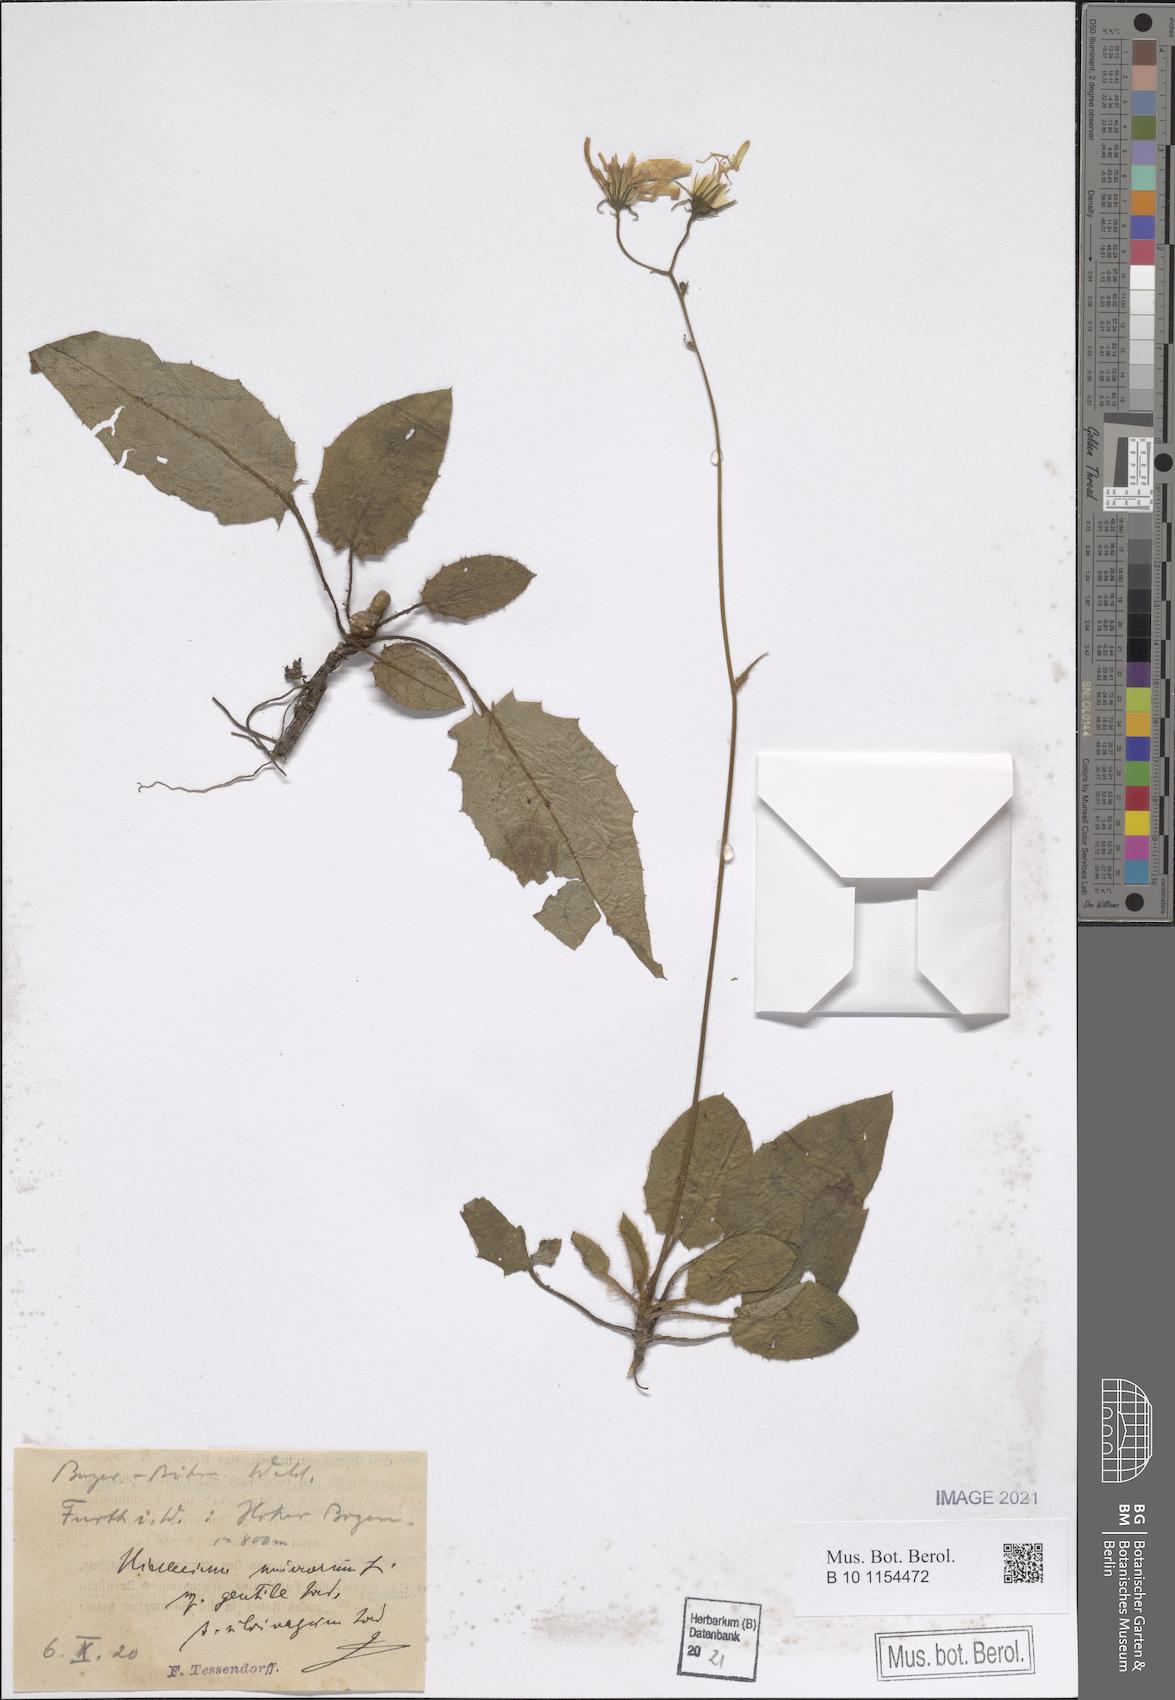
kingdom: Plantae
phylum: Tracheophyta
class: Magnoliopsida
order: Asterales
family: Asteraceae
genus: Hieracium
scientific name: Hieracium murorum
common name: Wall hawkweed
